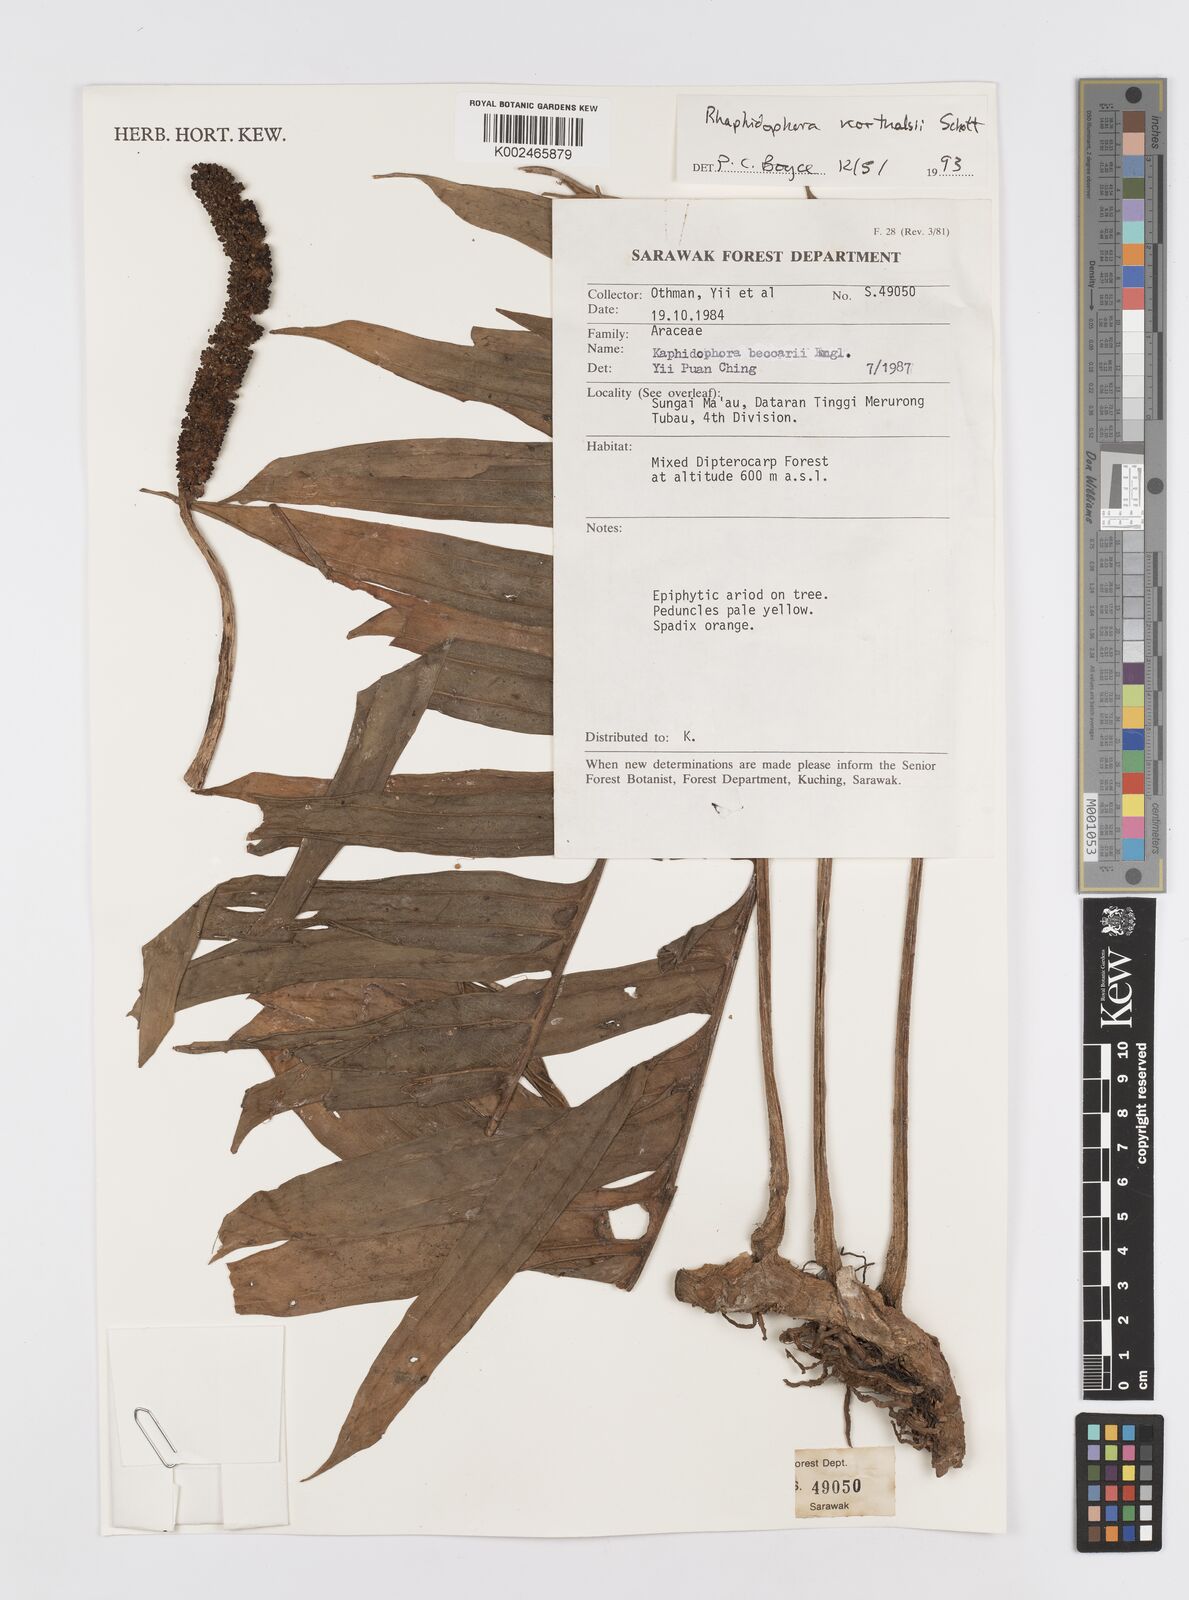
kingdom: Plantae
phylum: Tracheophyta
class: Liliopsida
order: Alismatales
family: Araceae
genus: Rhaphidophora
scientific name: Rhaphidophora korthalsii
